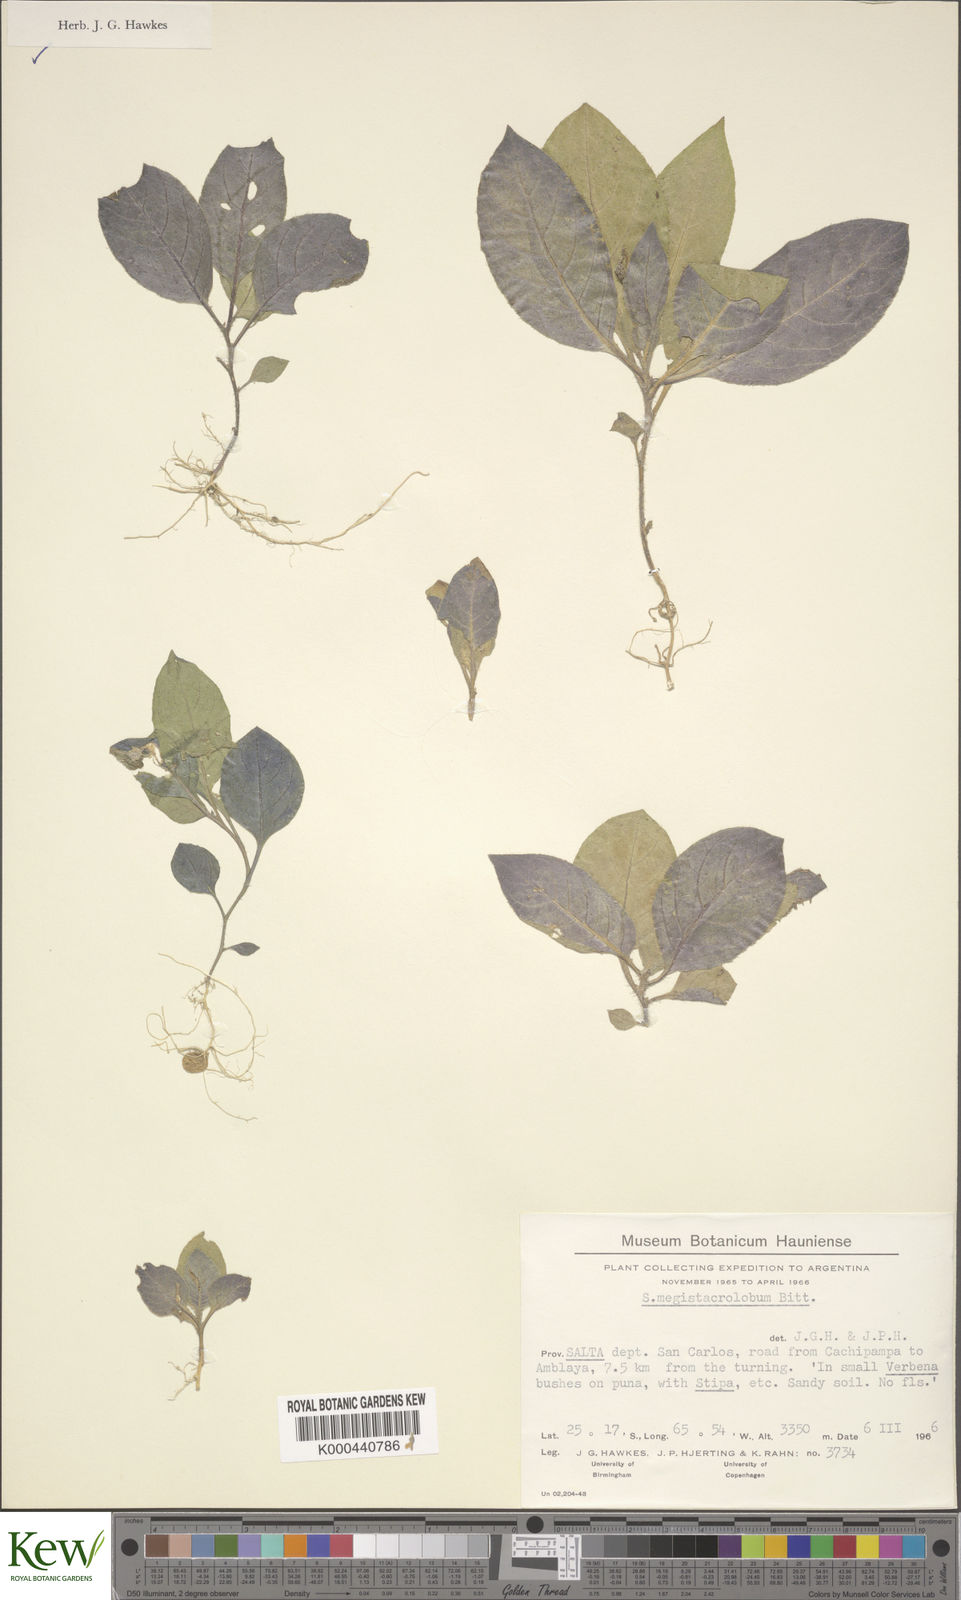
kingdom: Plantae
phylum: Tracheophyta
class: Magnoliopsida
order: Solanales
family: Solanaceae
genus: Solanum
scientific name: Solanum boliviense
